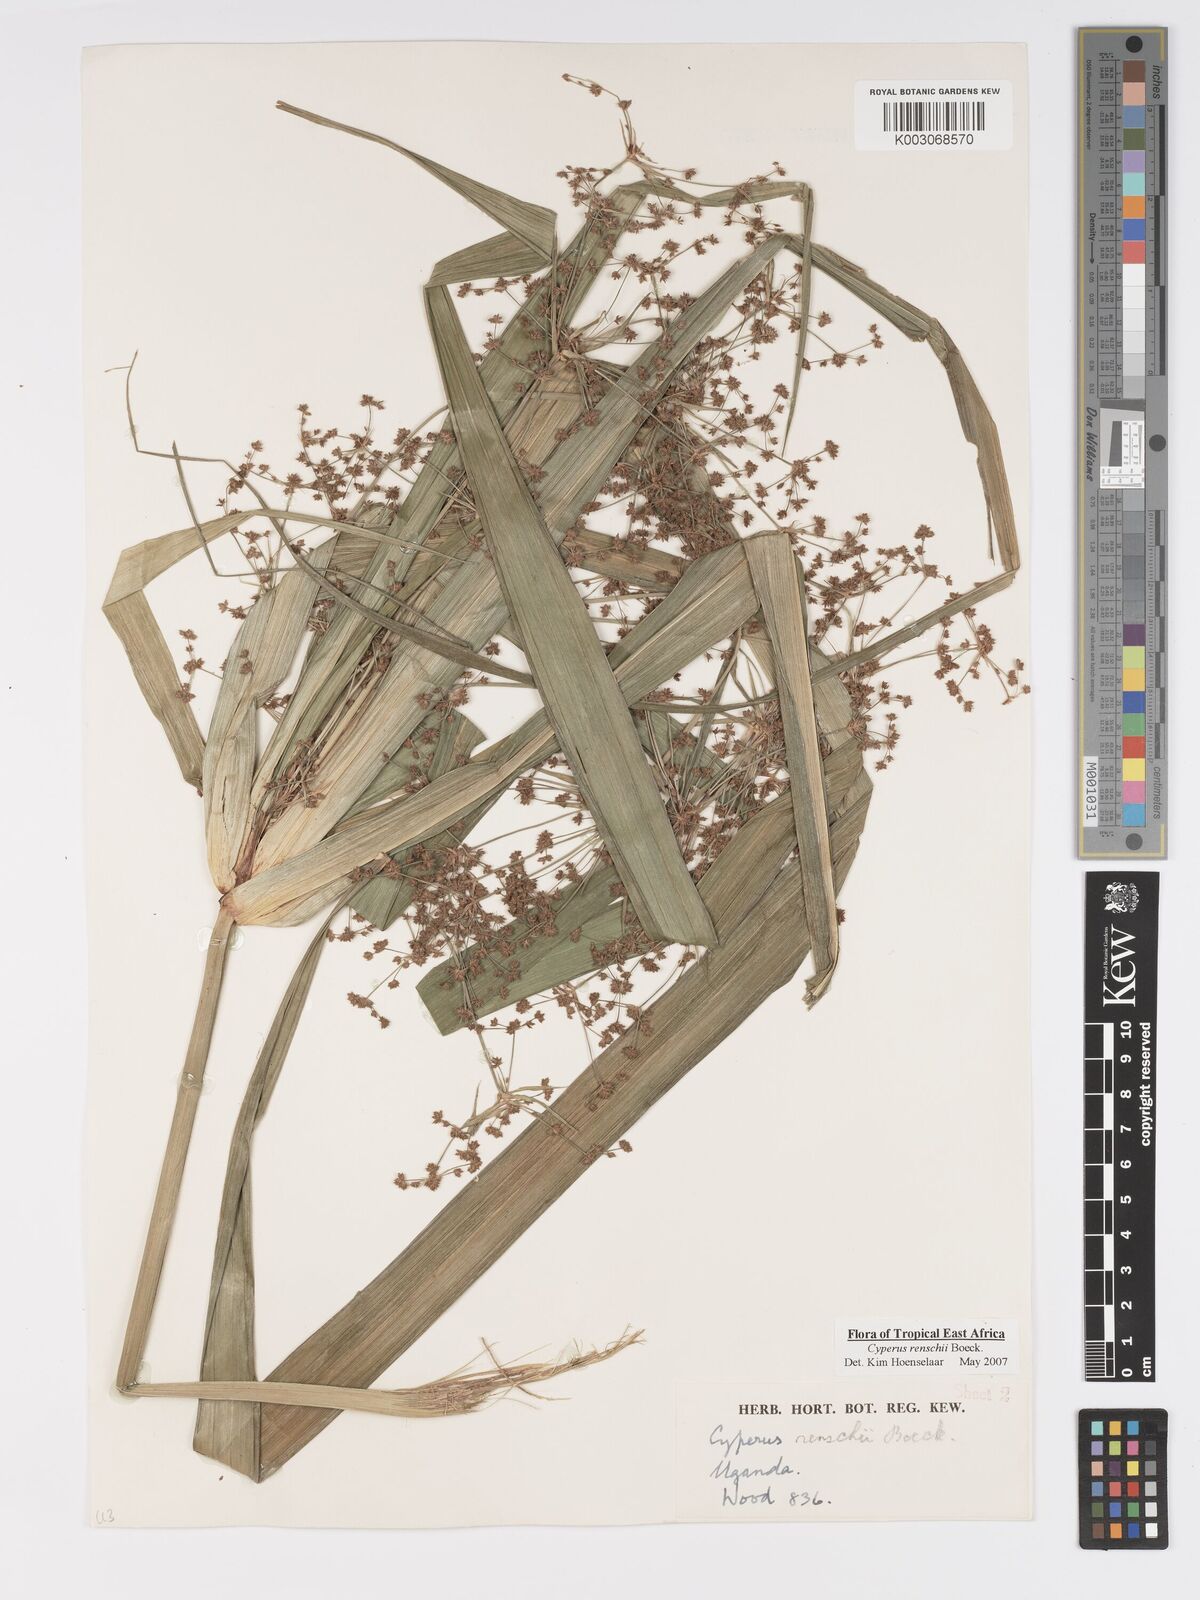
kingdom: Plantae
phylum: Tracheophyta
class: Liliopsida
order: Poales
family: Cyperaceae
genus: Cyperus
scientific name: Cyperus renschii
